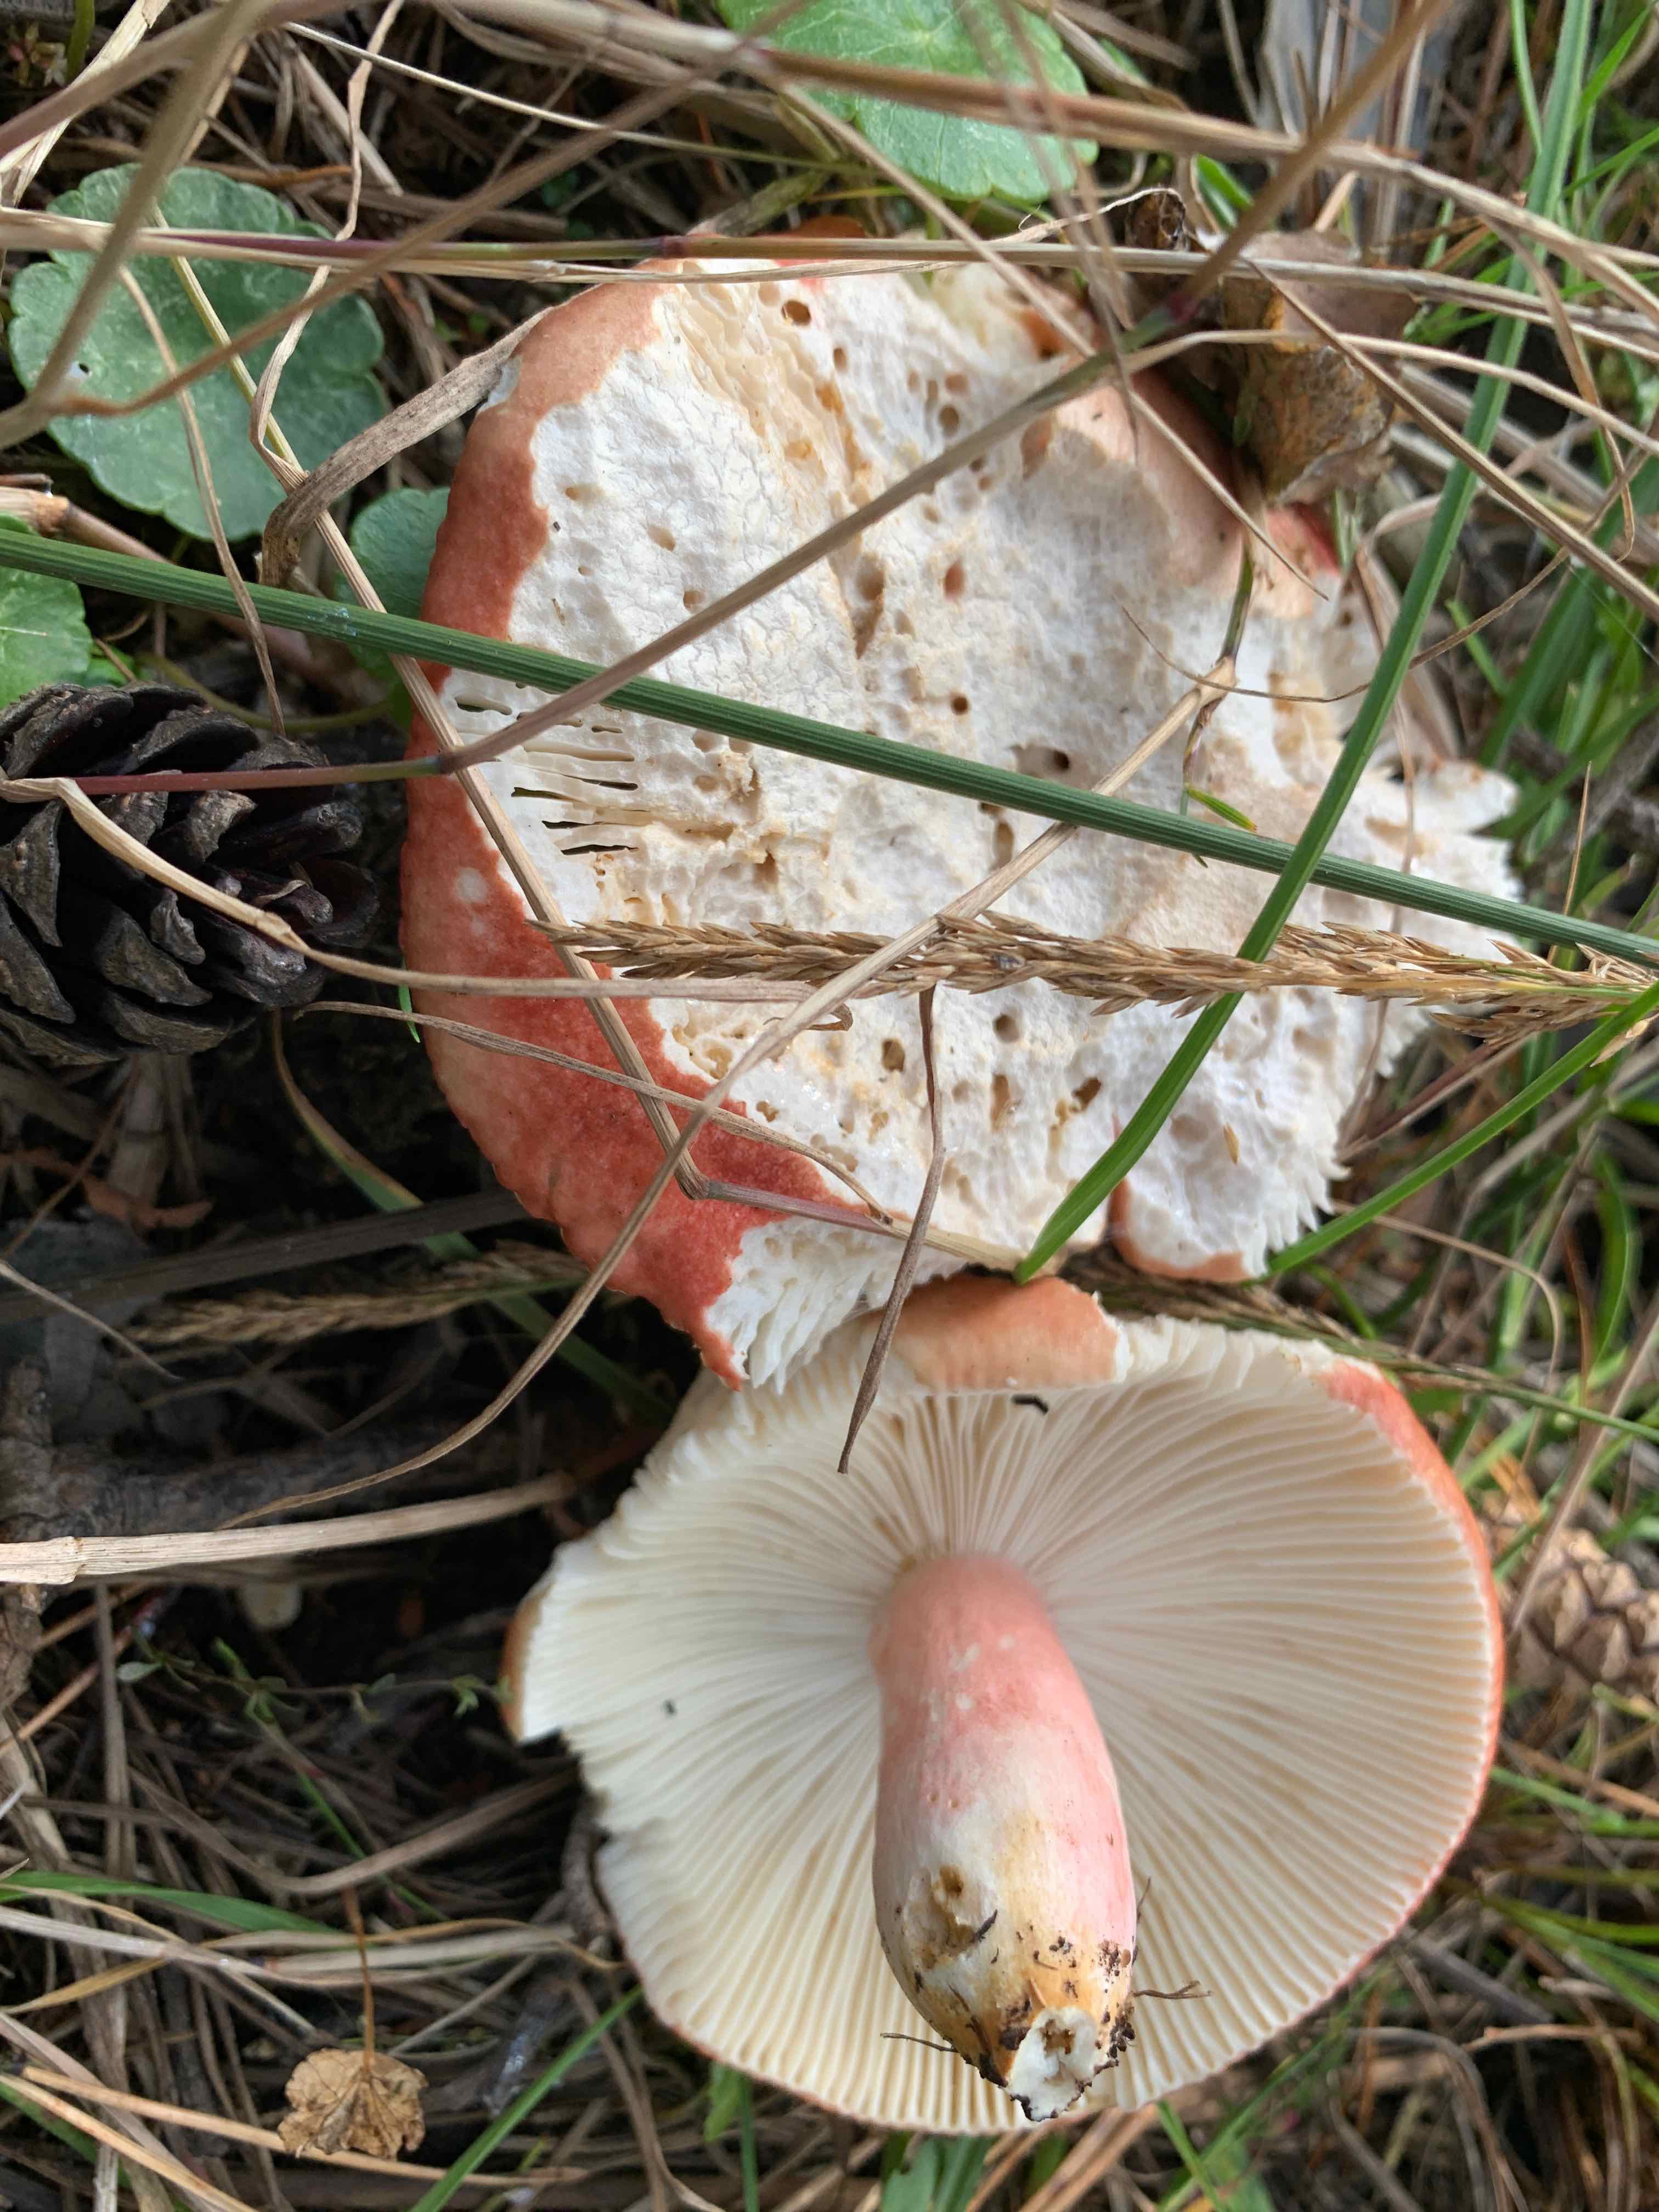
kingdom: Fungi
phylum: Basidiomycota
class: Agaricomycetes
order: Russulales
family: Russulaceae
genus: Russula
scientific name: Russula sanguinea
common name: blodrød skørhat
